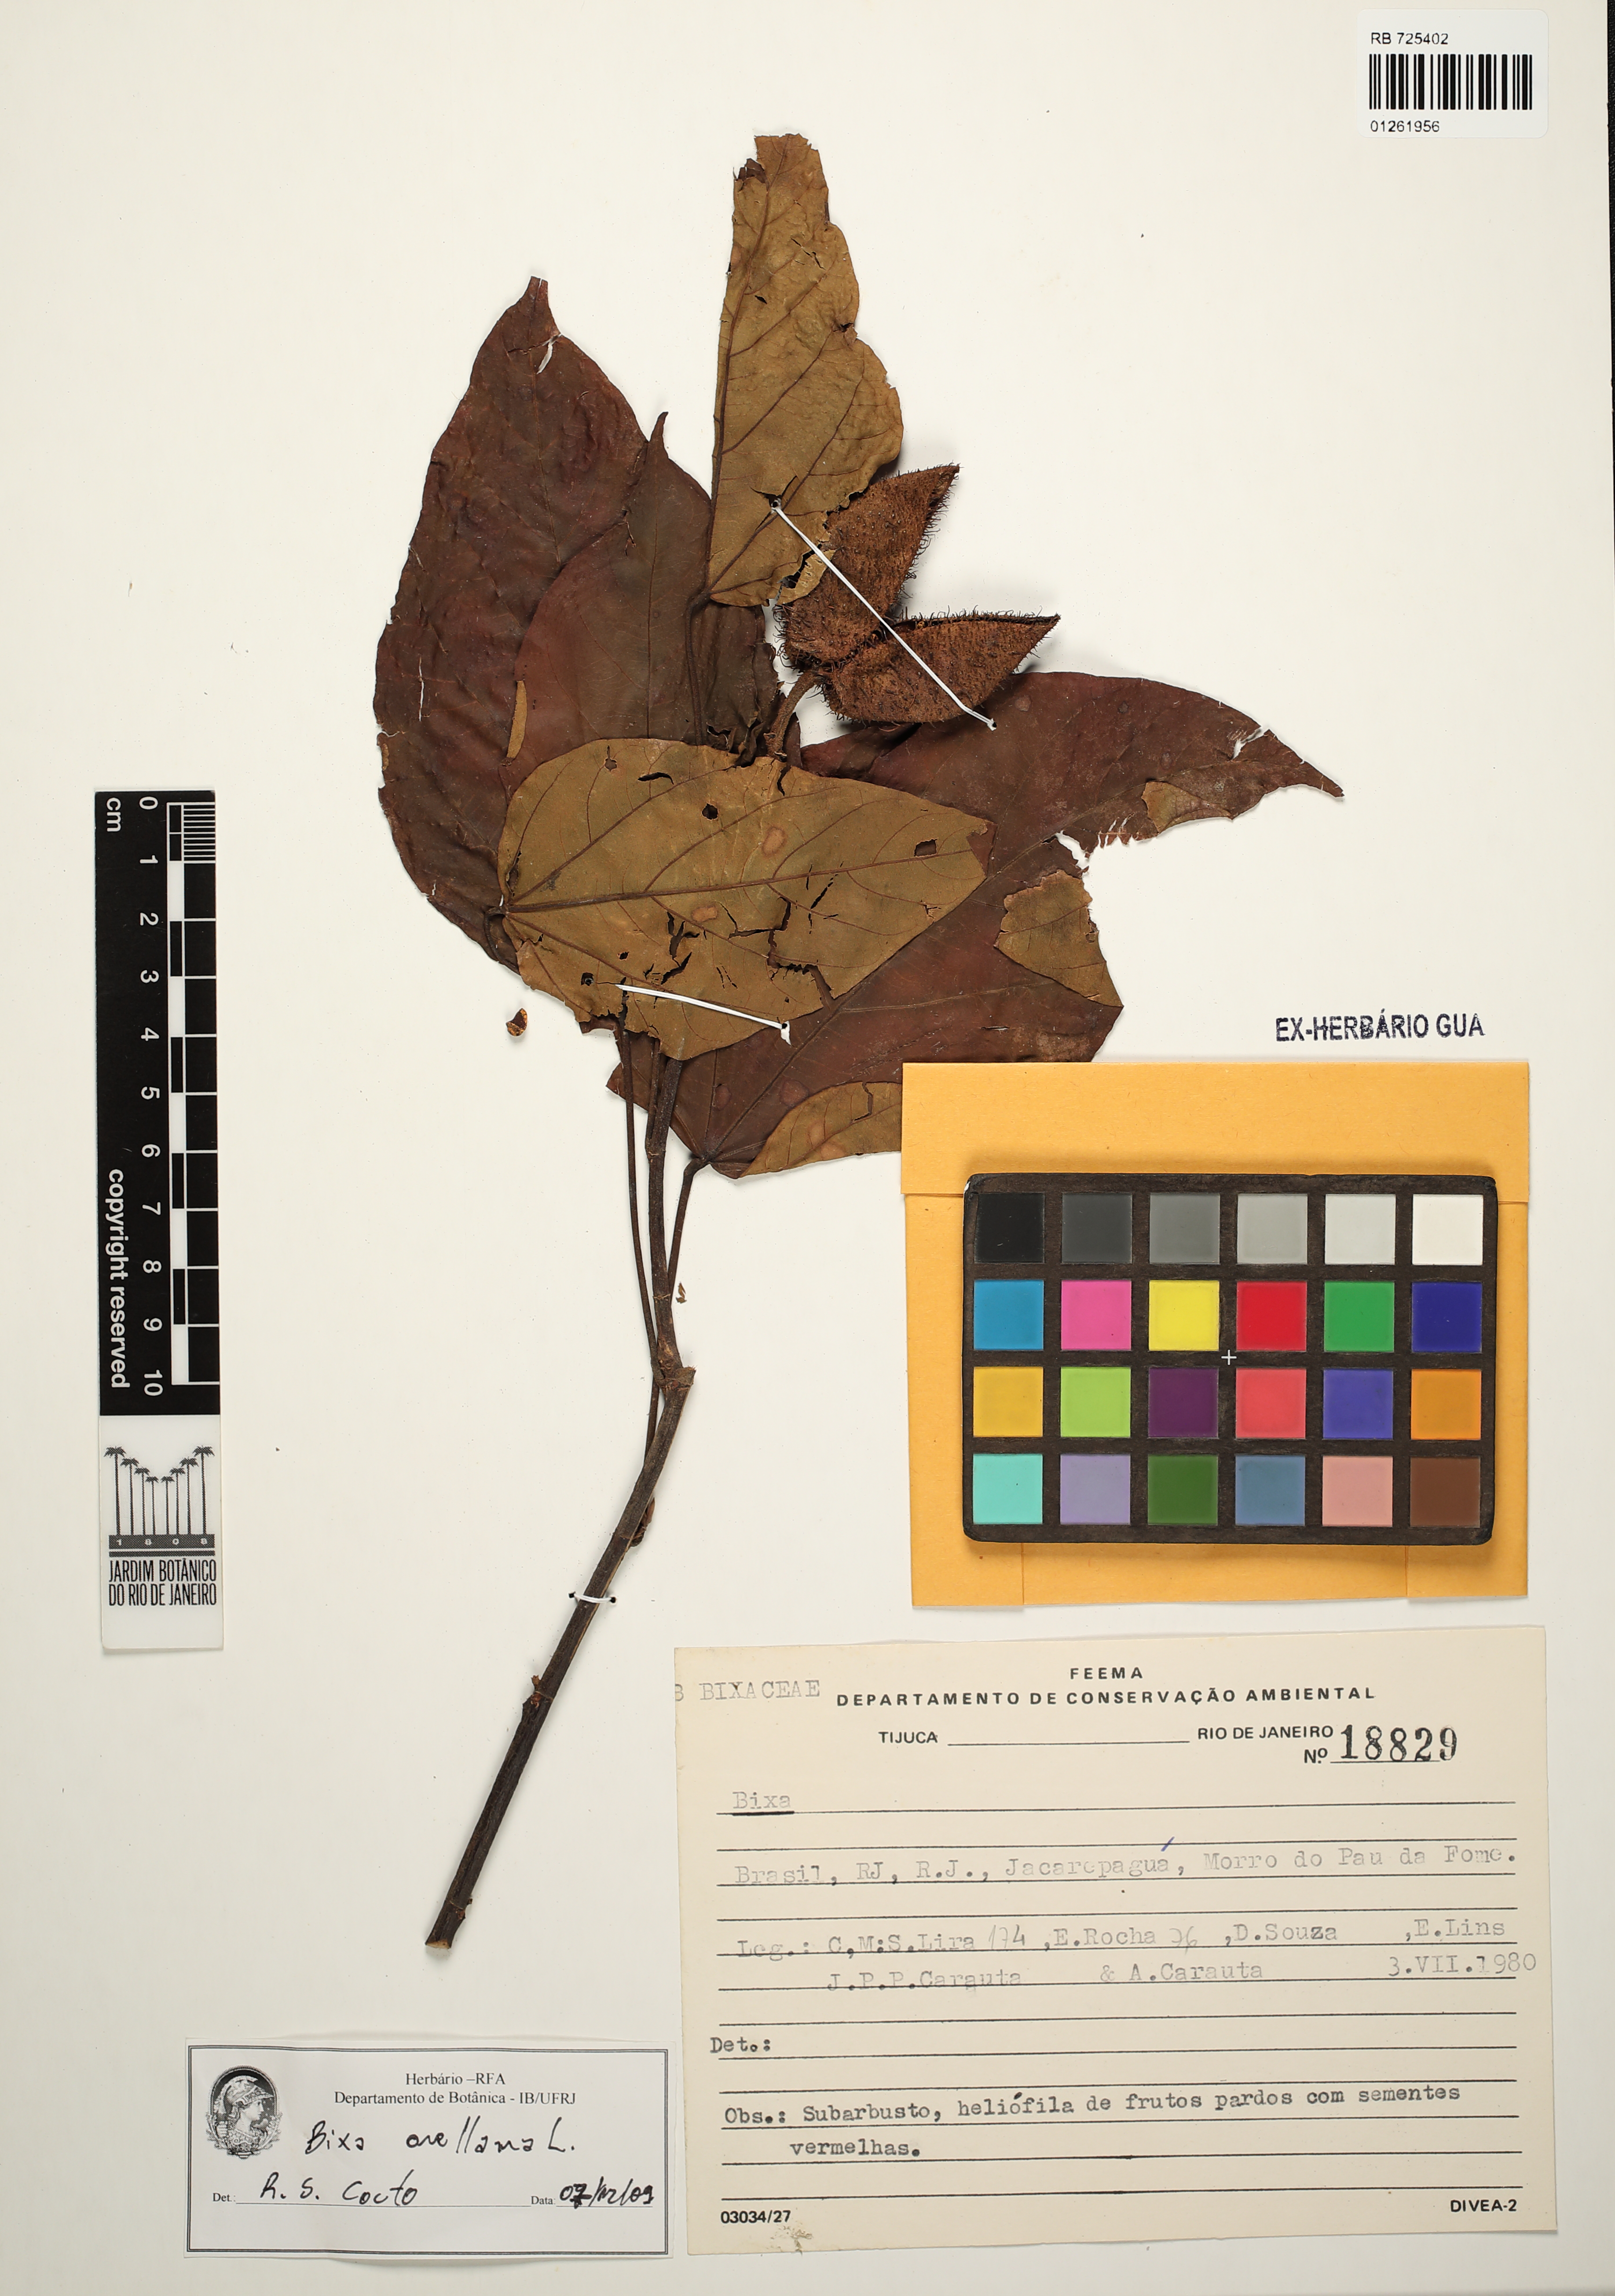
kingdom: Plantae
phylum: Tracheophyta
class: Magnoliopsida
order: Malvales
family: Bixaceae
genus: Bixa
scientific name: Bixa orellana
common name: Lipsticktree
